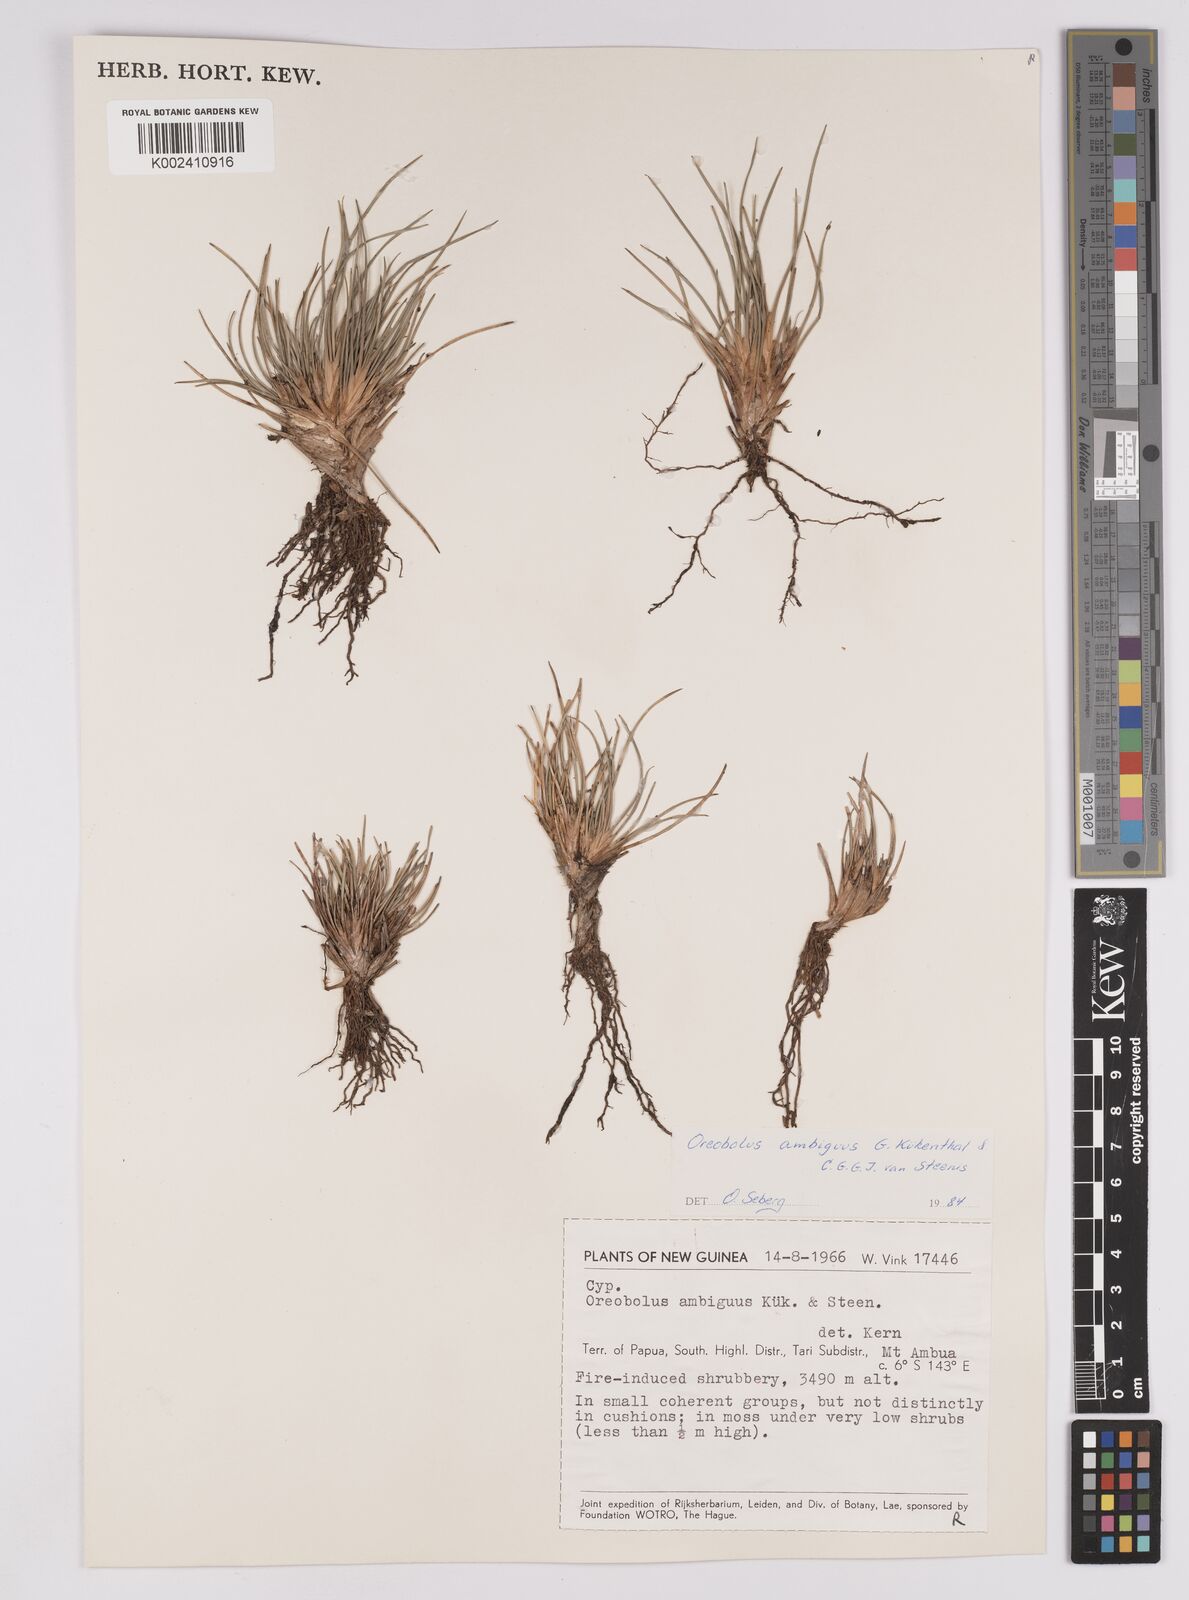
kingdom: Plantae
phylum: Tracheophyta
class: Liliopsida
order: Poales
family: Cyperaceae
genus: Oreobolus
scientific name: Oreobolus ambiguus
